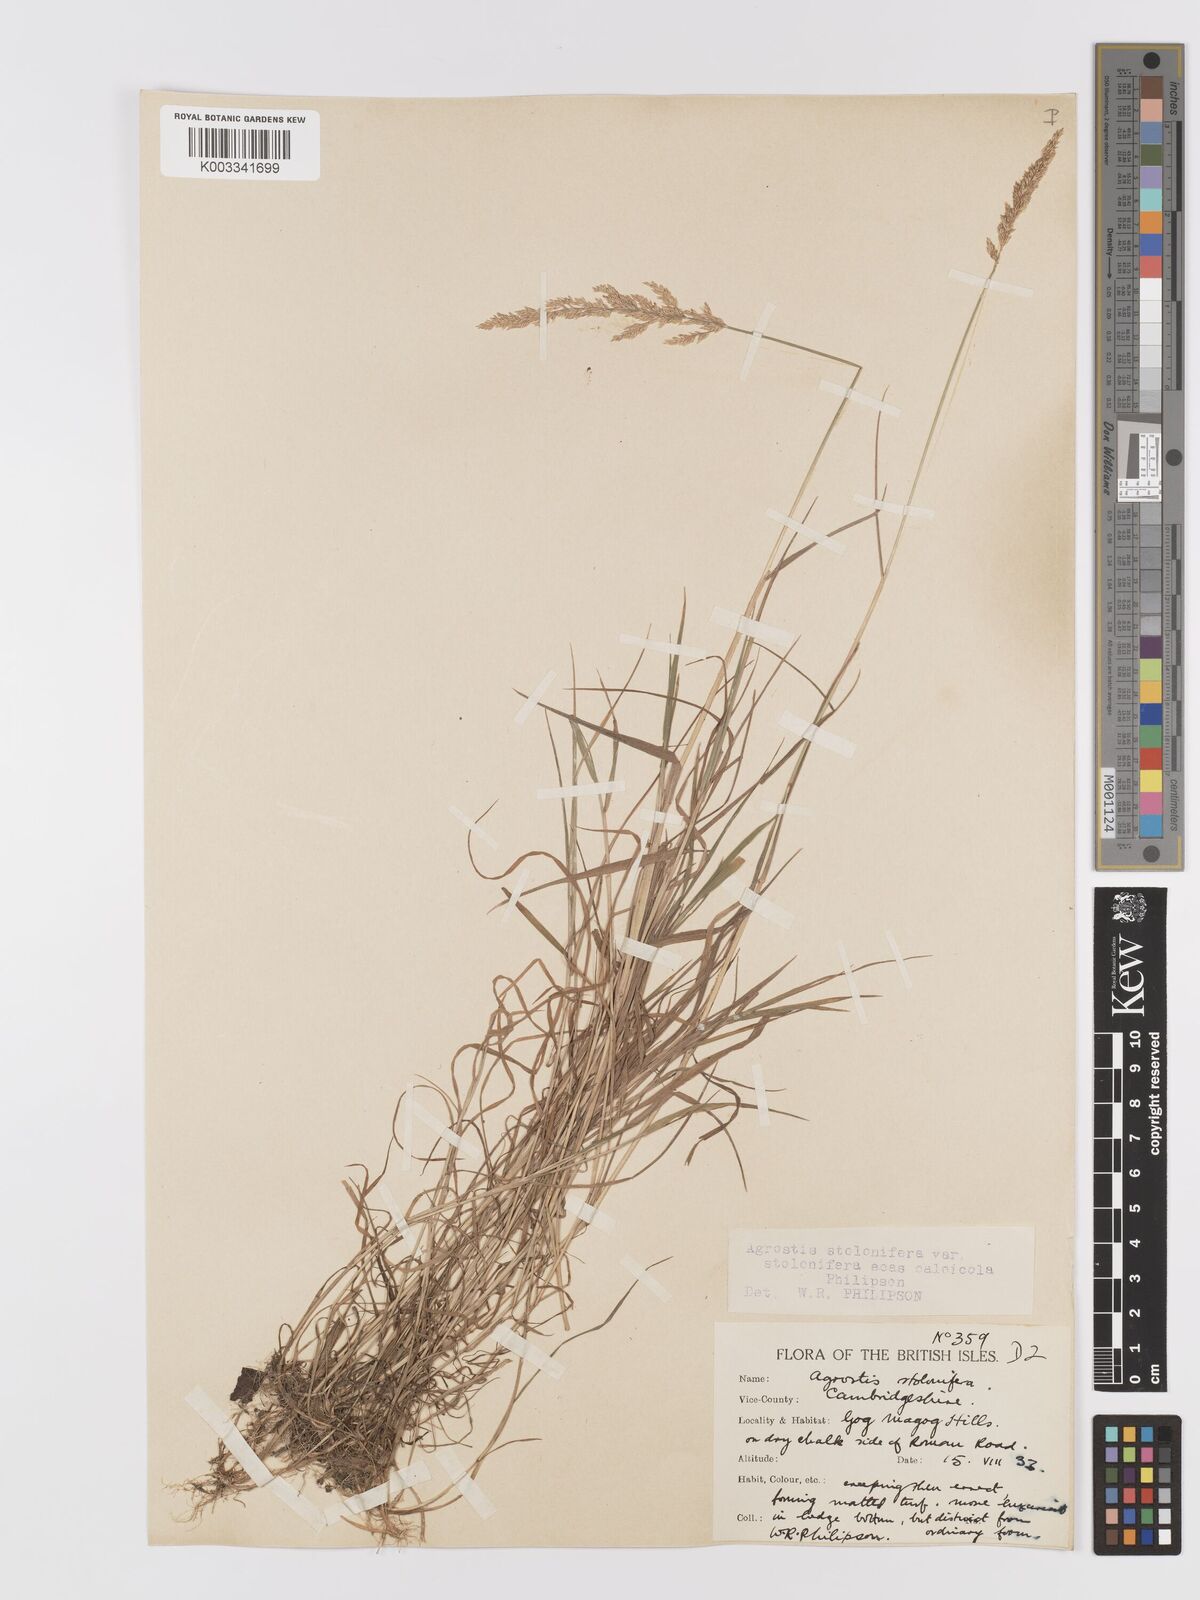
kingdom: Plantae
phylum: Tracheophyta
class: Liliopsida
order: Poales
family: Poaceae
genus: Agrostis
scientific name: Agrostis stolonifera
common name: Creeping bentgrass
